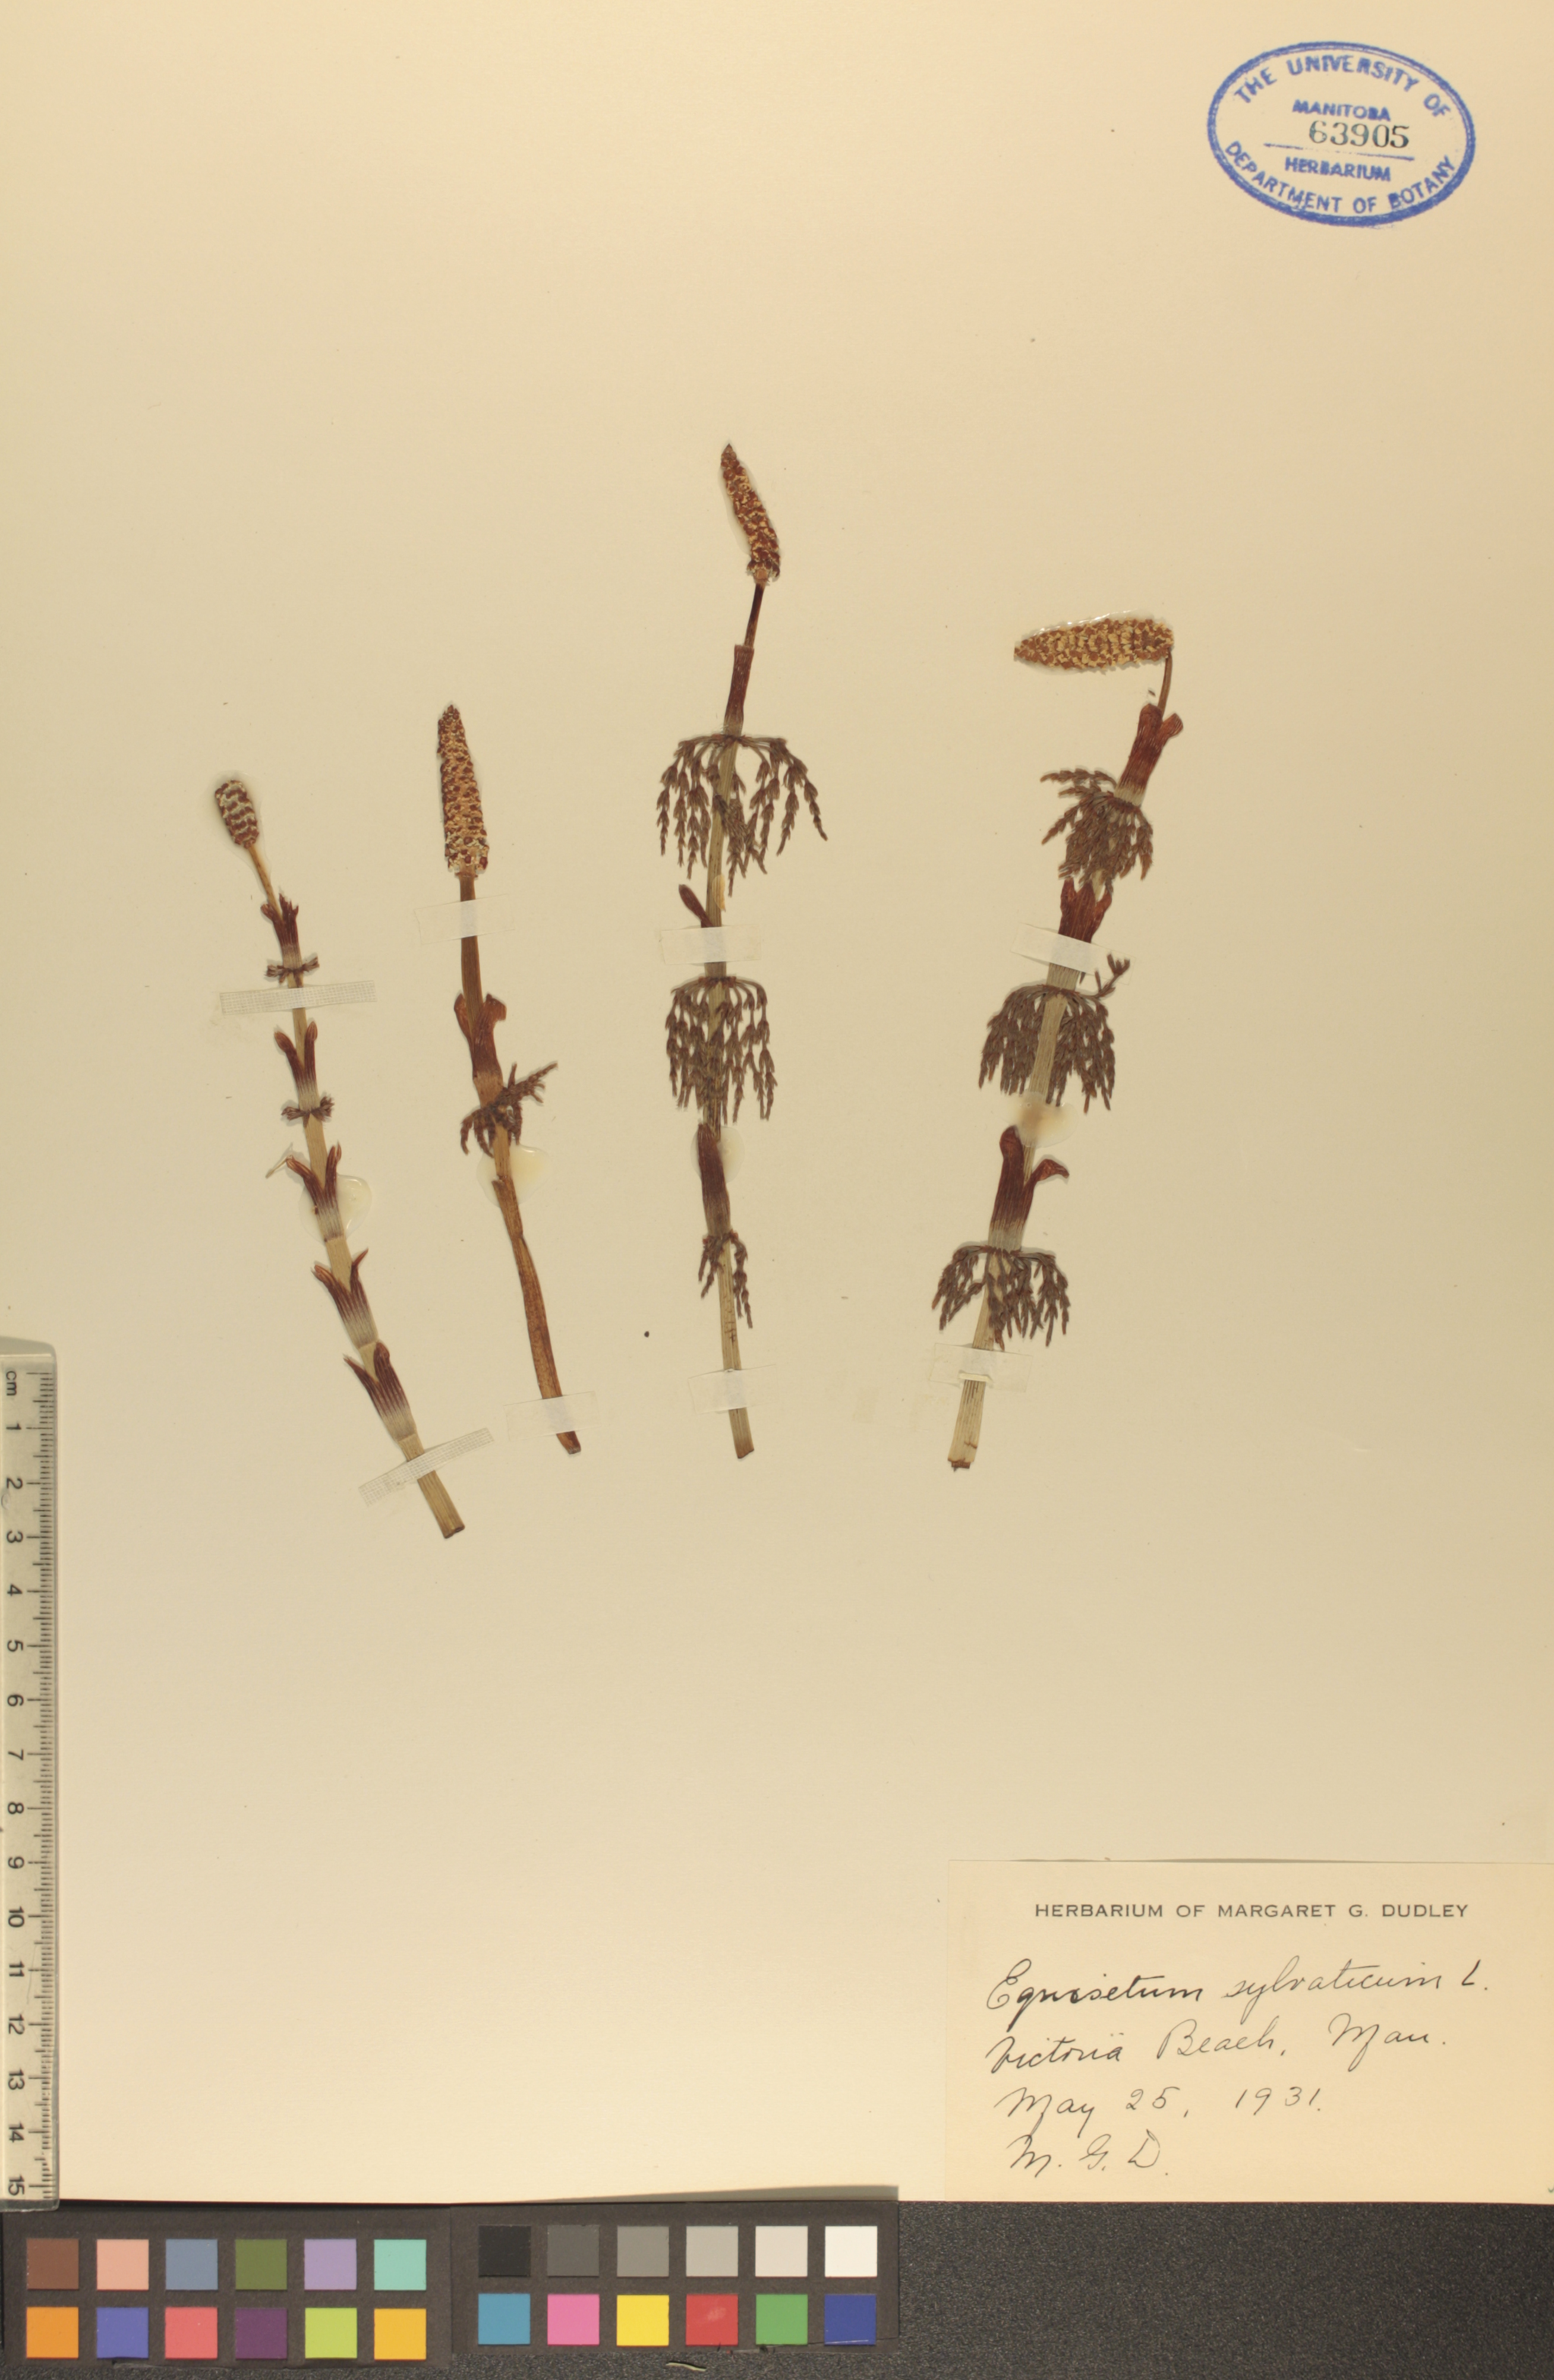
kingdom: Plantae
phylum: Tracheophyta
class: Polypodiopsida
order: Equisetales
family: Equisetaceae
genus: Equisetum
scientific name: Equisetum sylvaticum
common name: Wood horsetail
